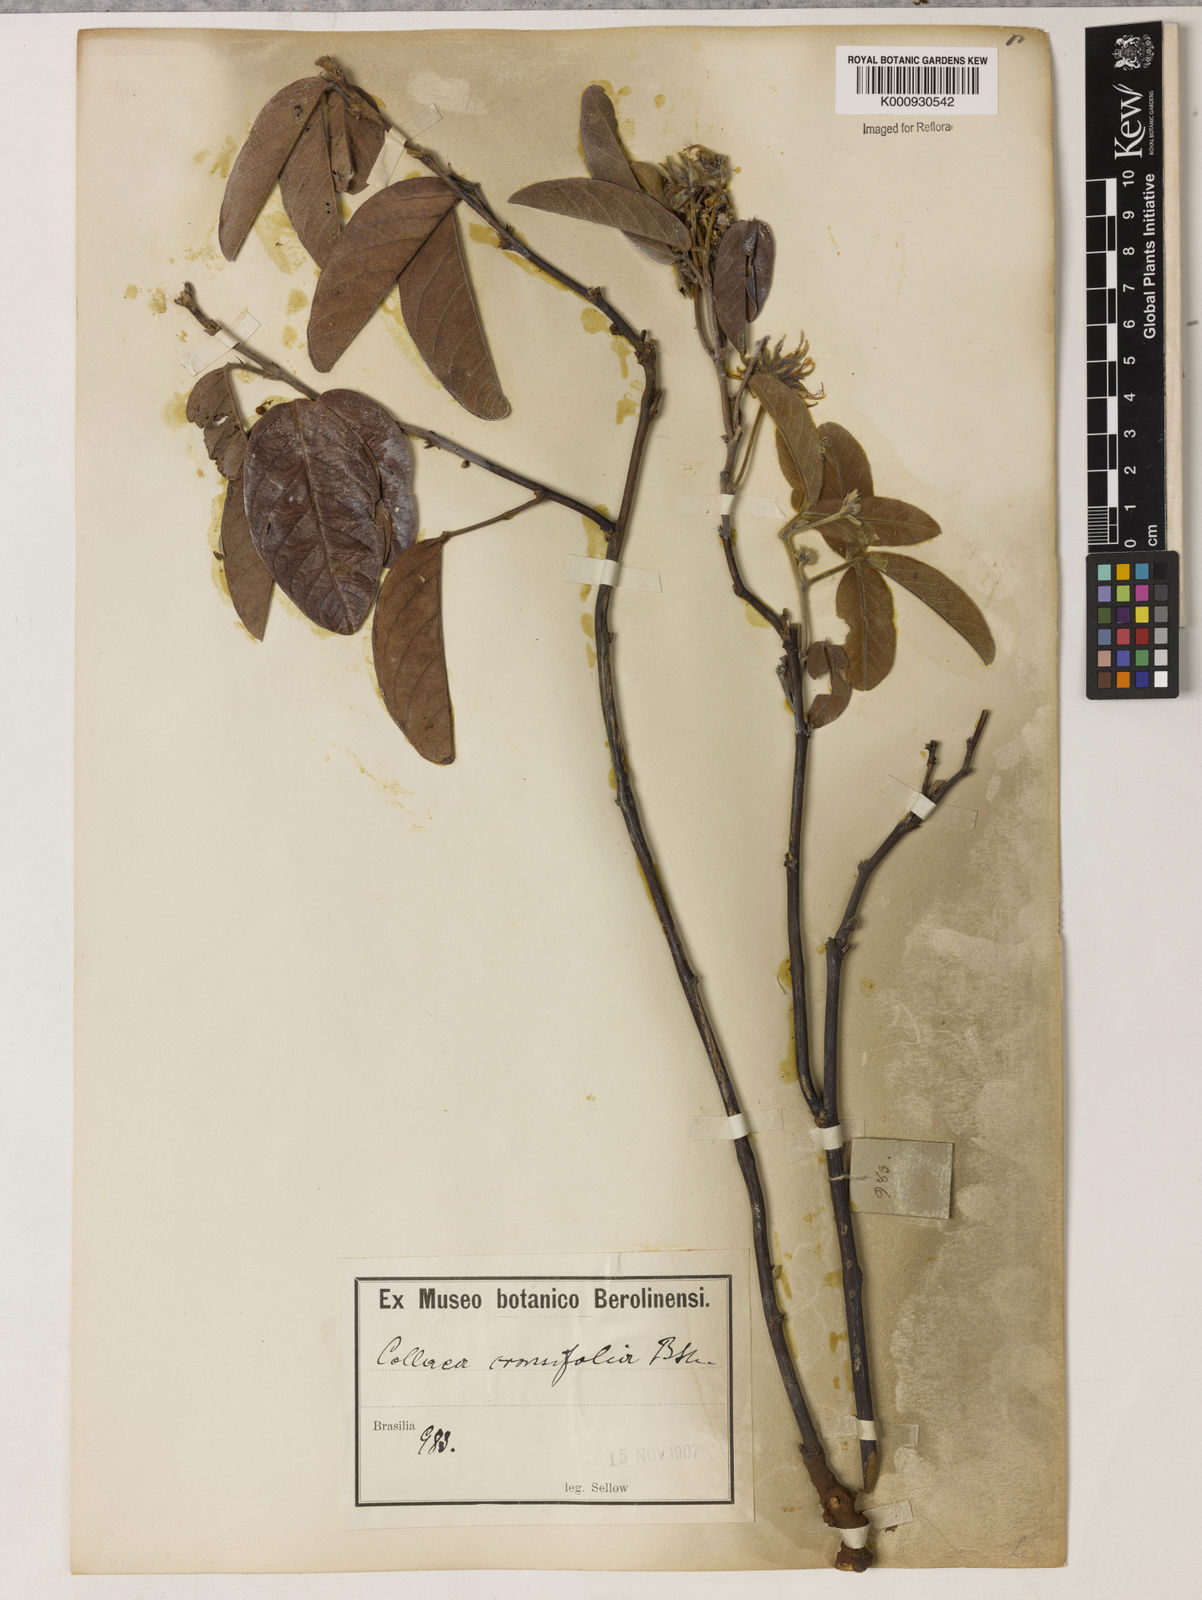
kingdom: Plantae
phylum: Tracheophyta
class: Magnoliopsida
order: Fabales
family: Fabaceae
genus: Betencourtia
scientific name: Betencourtia crassifolia
